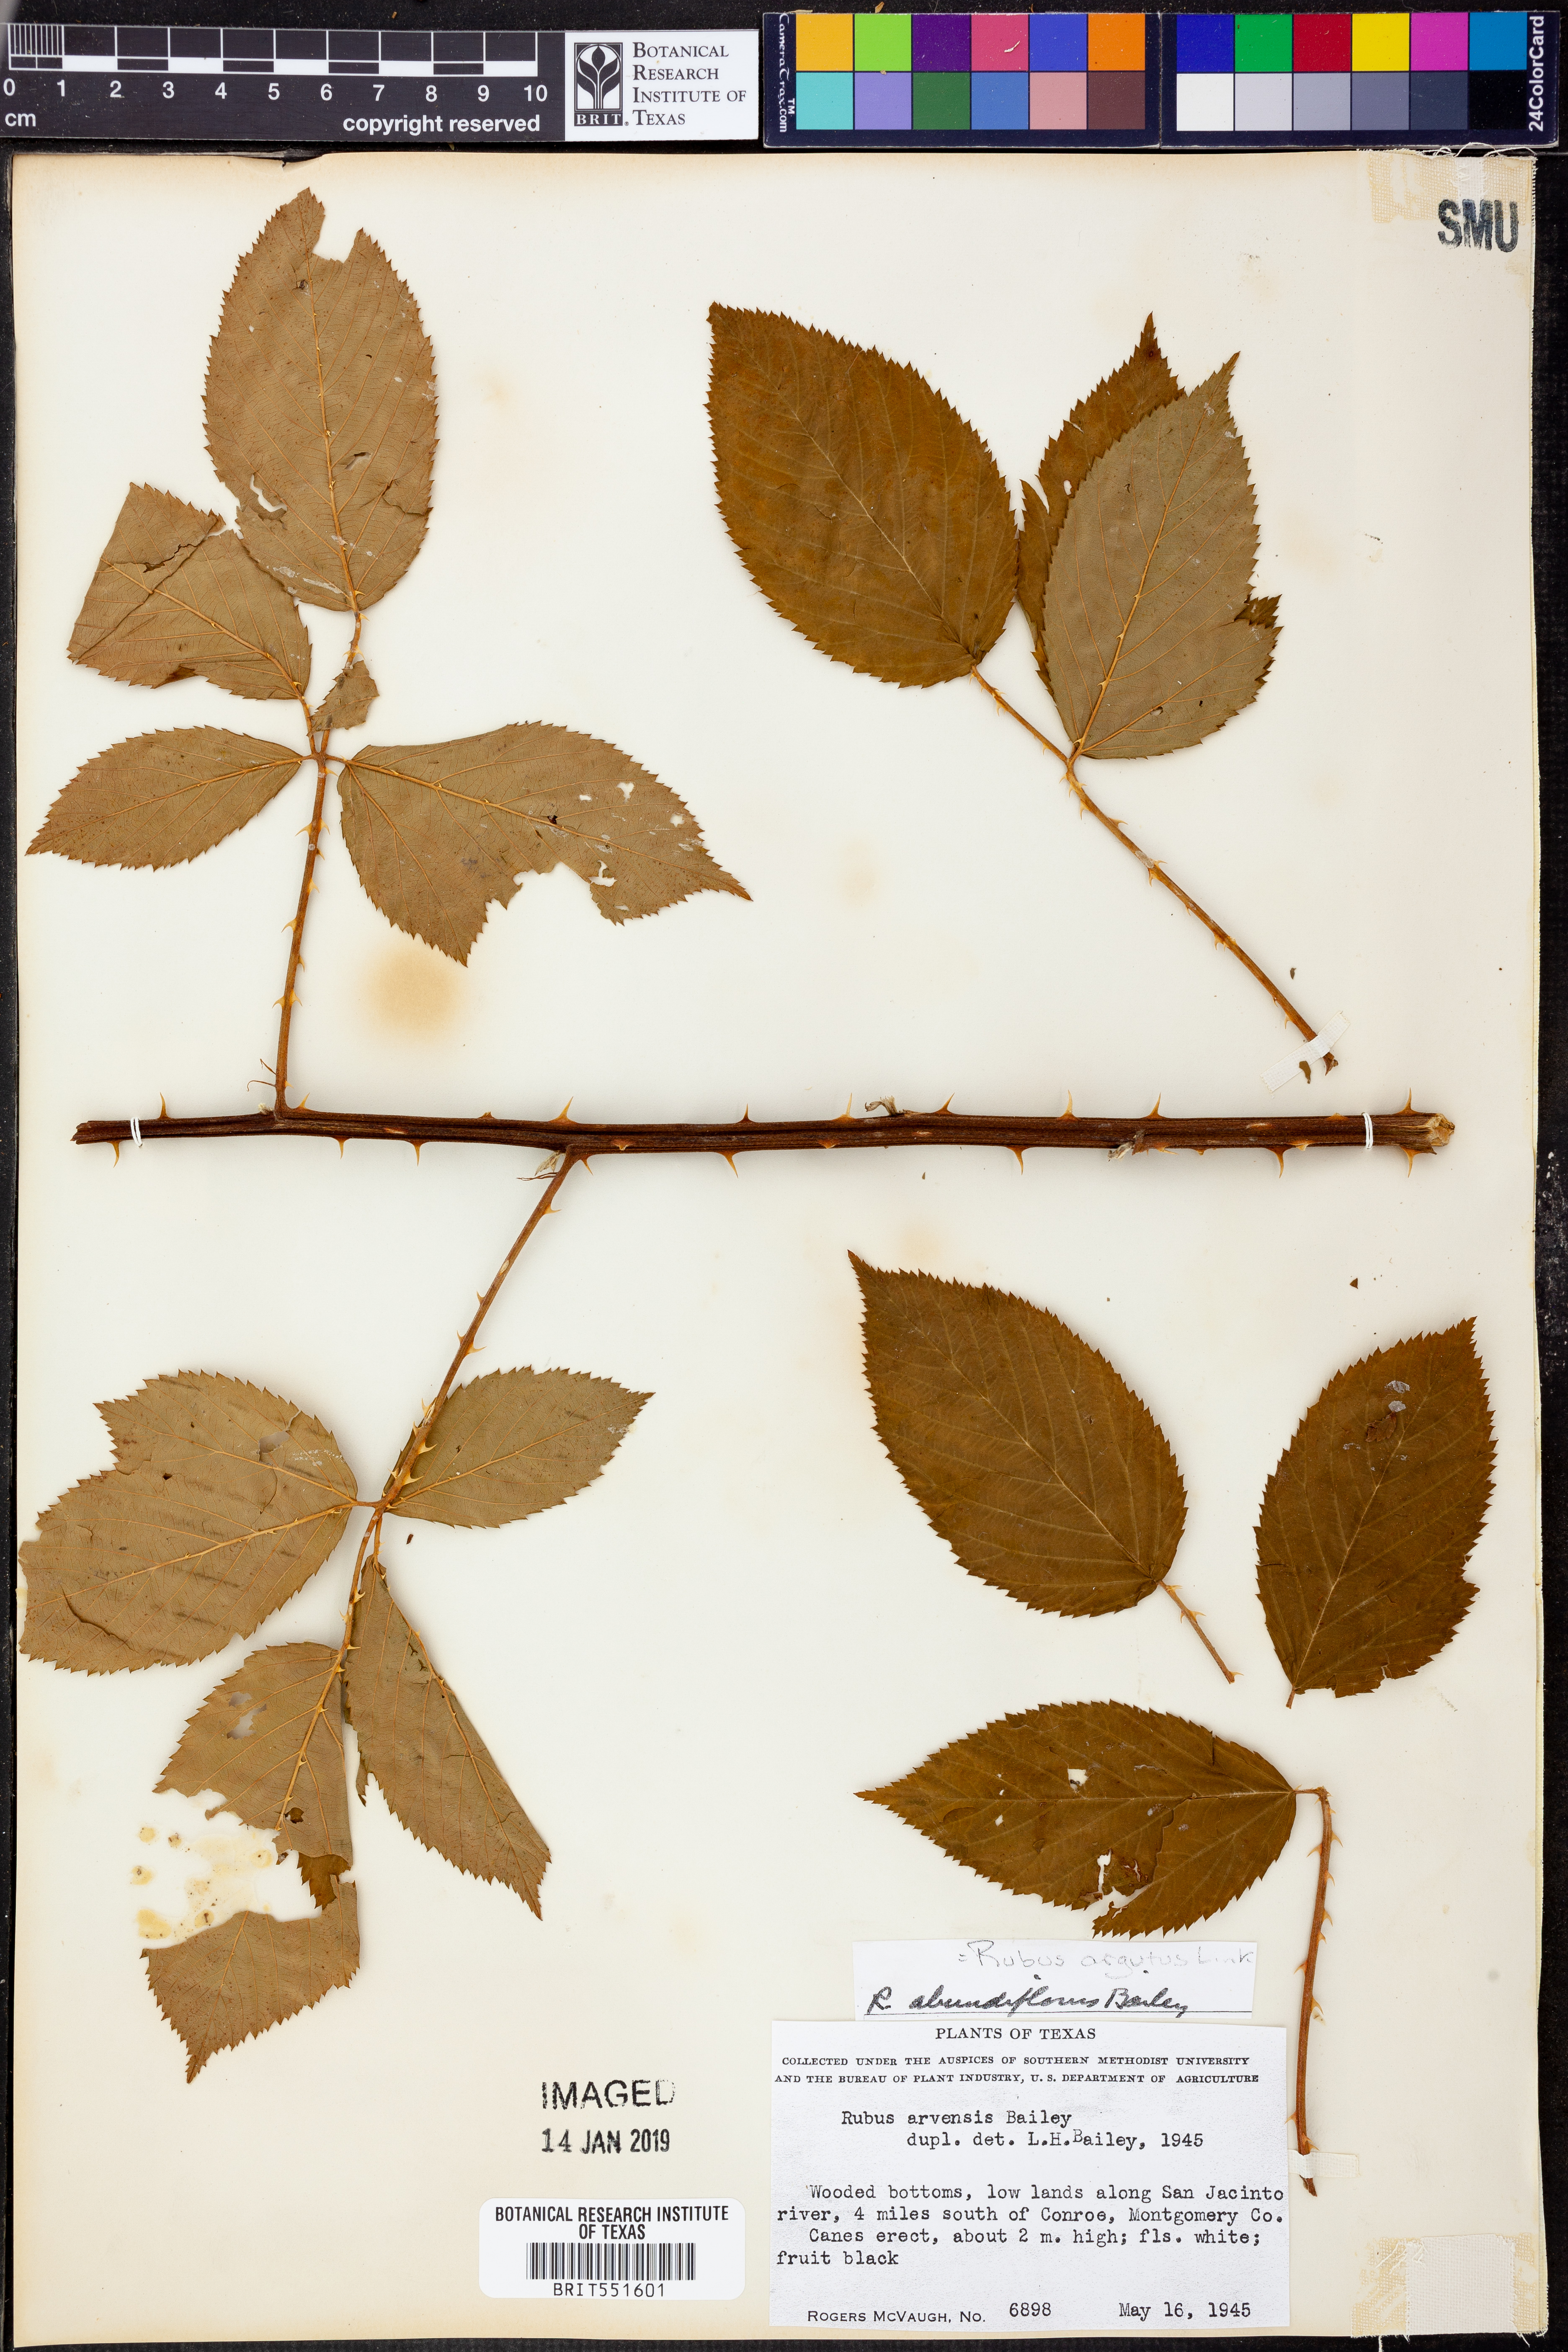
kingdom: Plantae
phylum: Tracheophyta
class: Magnoliopsida
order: Rosales
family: Rosaceae
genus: Rubus
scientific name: Rubus argutus
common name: Sawtooth blackberry
